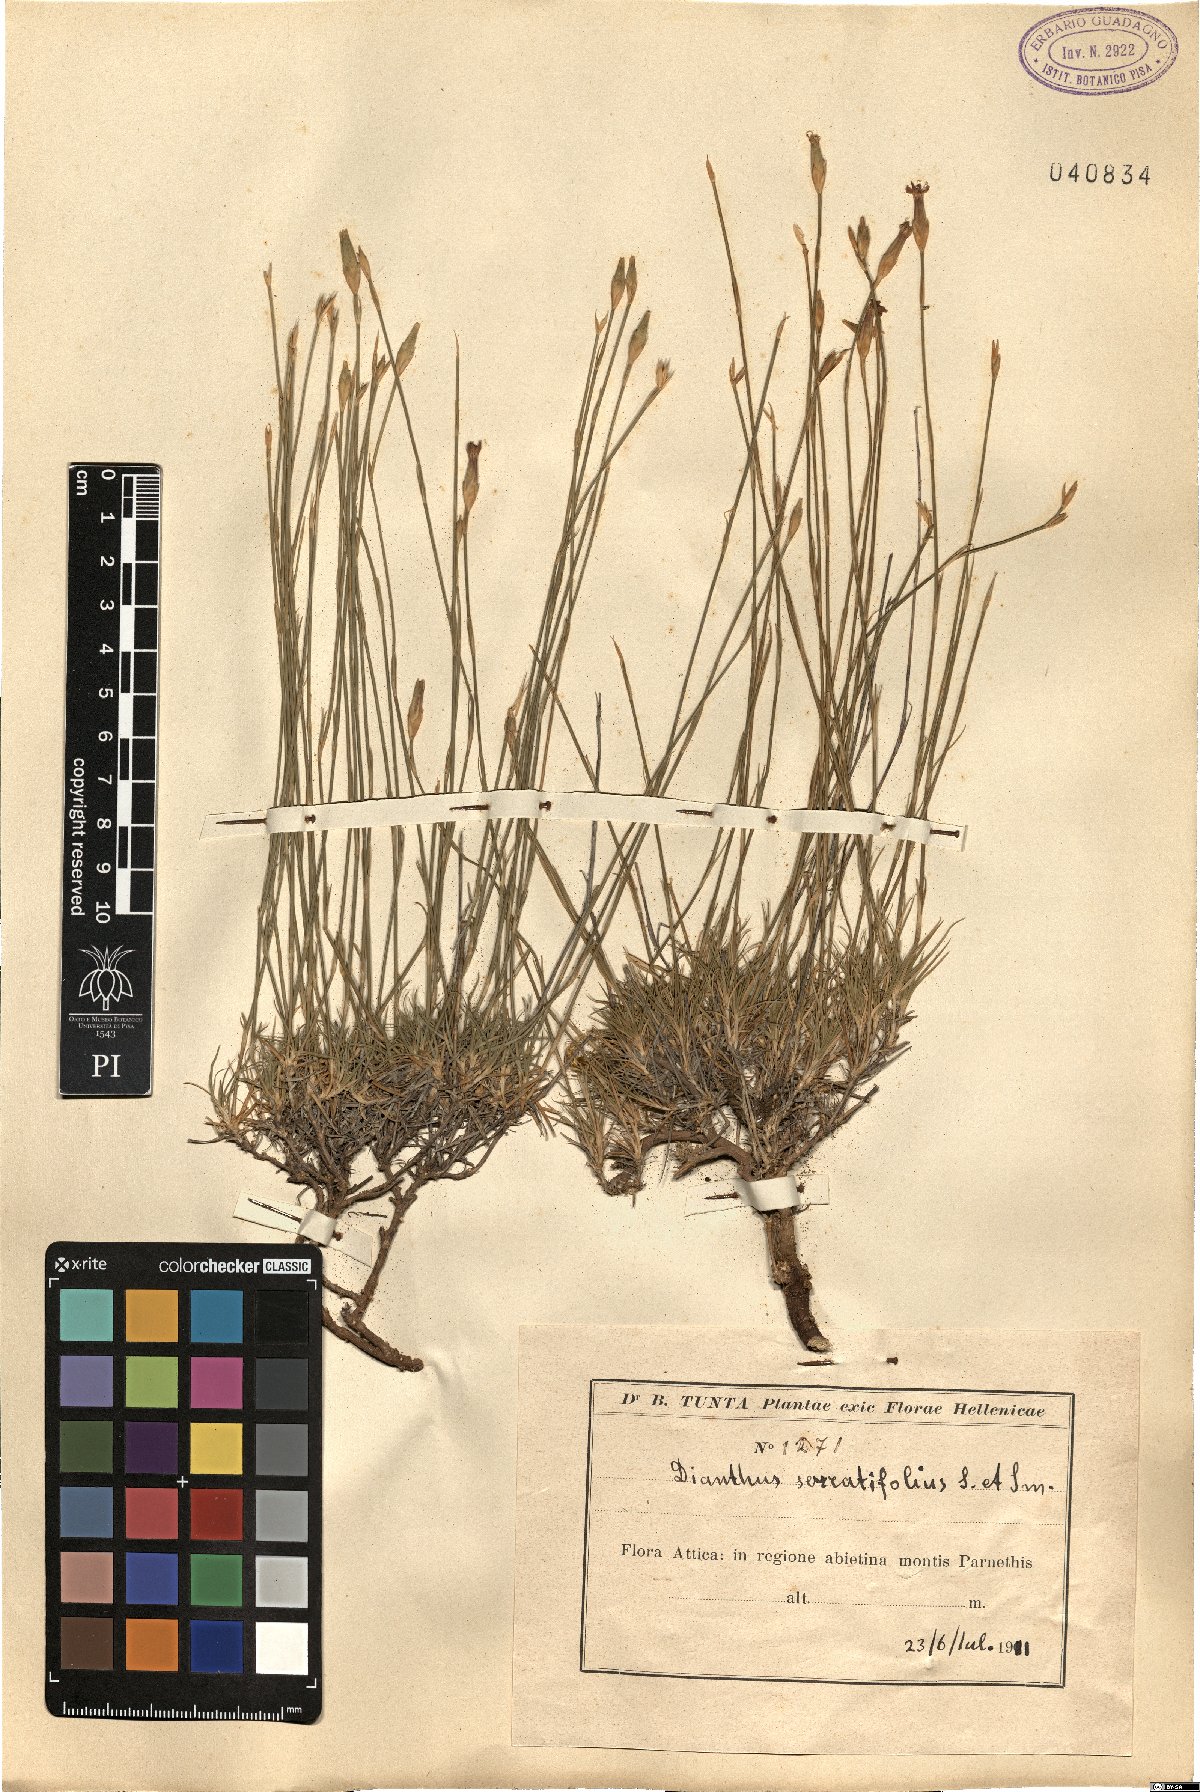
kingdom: Plantae
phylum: Tracheophyta
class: Magnoliopsida
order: Caryophyllales
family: Caryophyllaceae
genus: Dianthus
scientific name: Dianthus serratifolius
